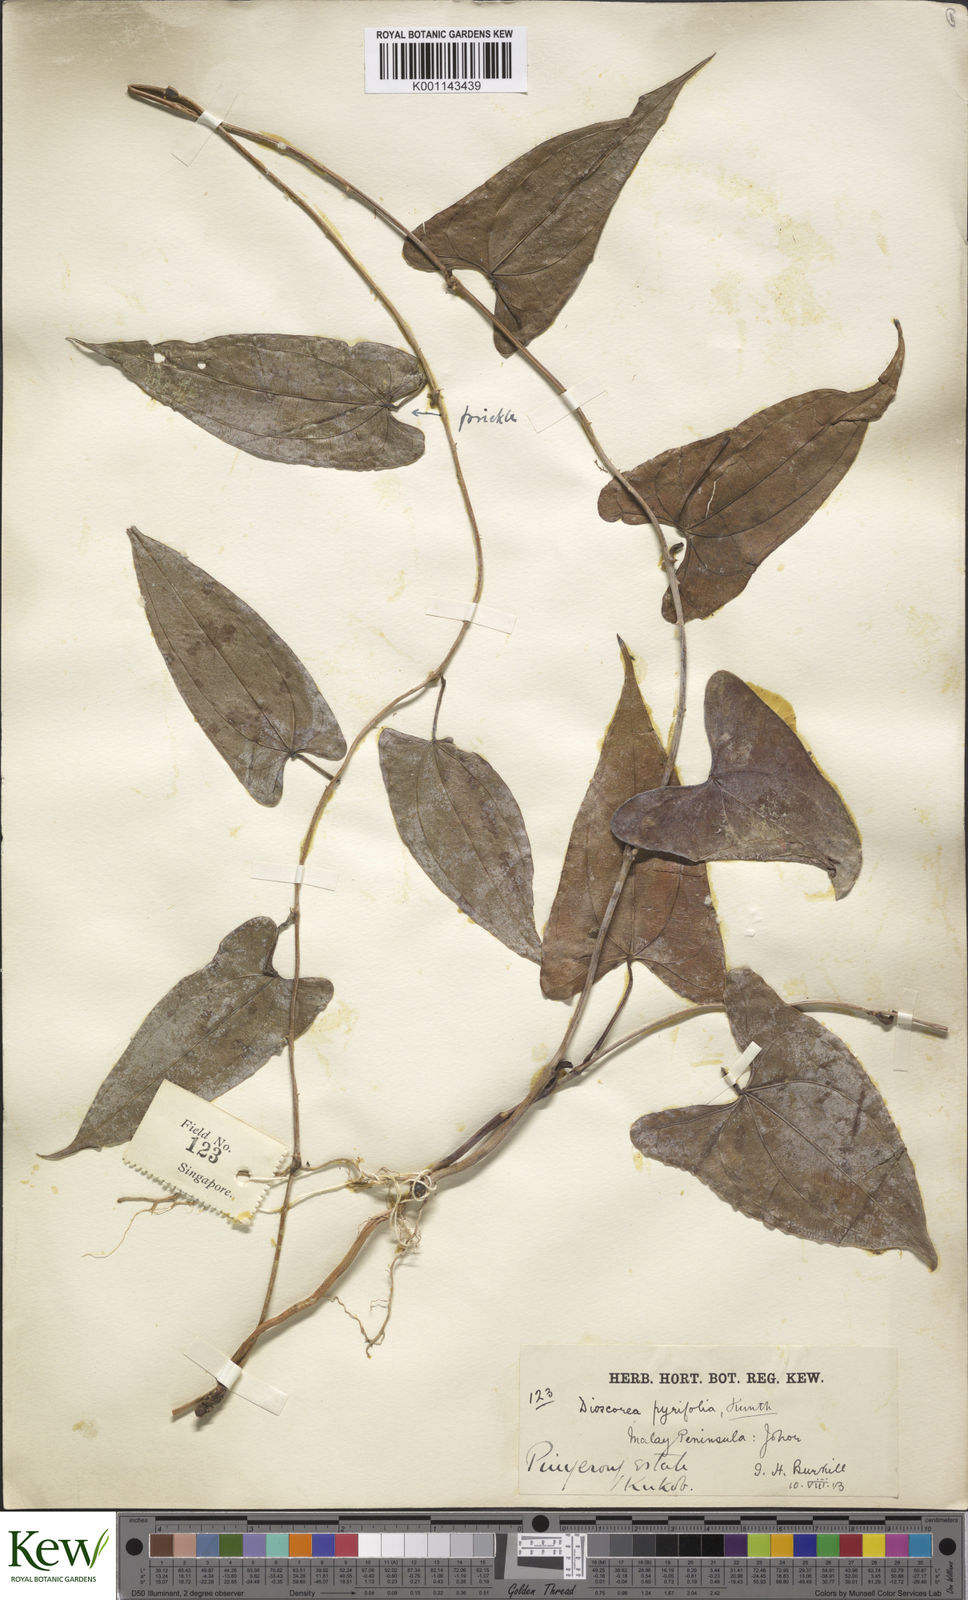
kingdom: Plantae
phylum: Tracheophyta
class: Liliopsida
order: Dioscoreales
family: Dioscoreaceae
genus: Dioscorea
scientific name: Dioscorea pyrifolia
